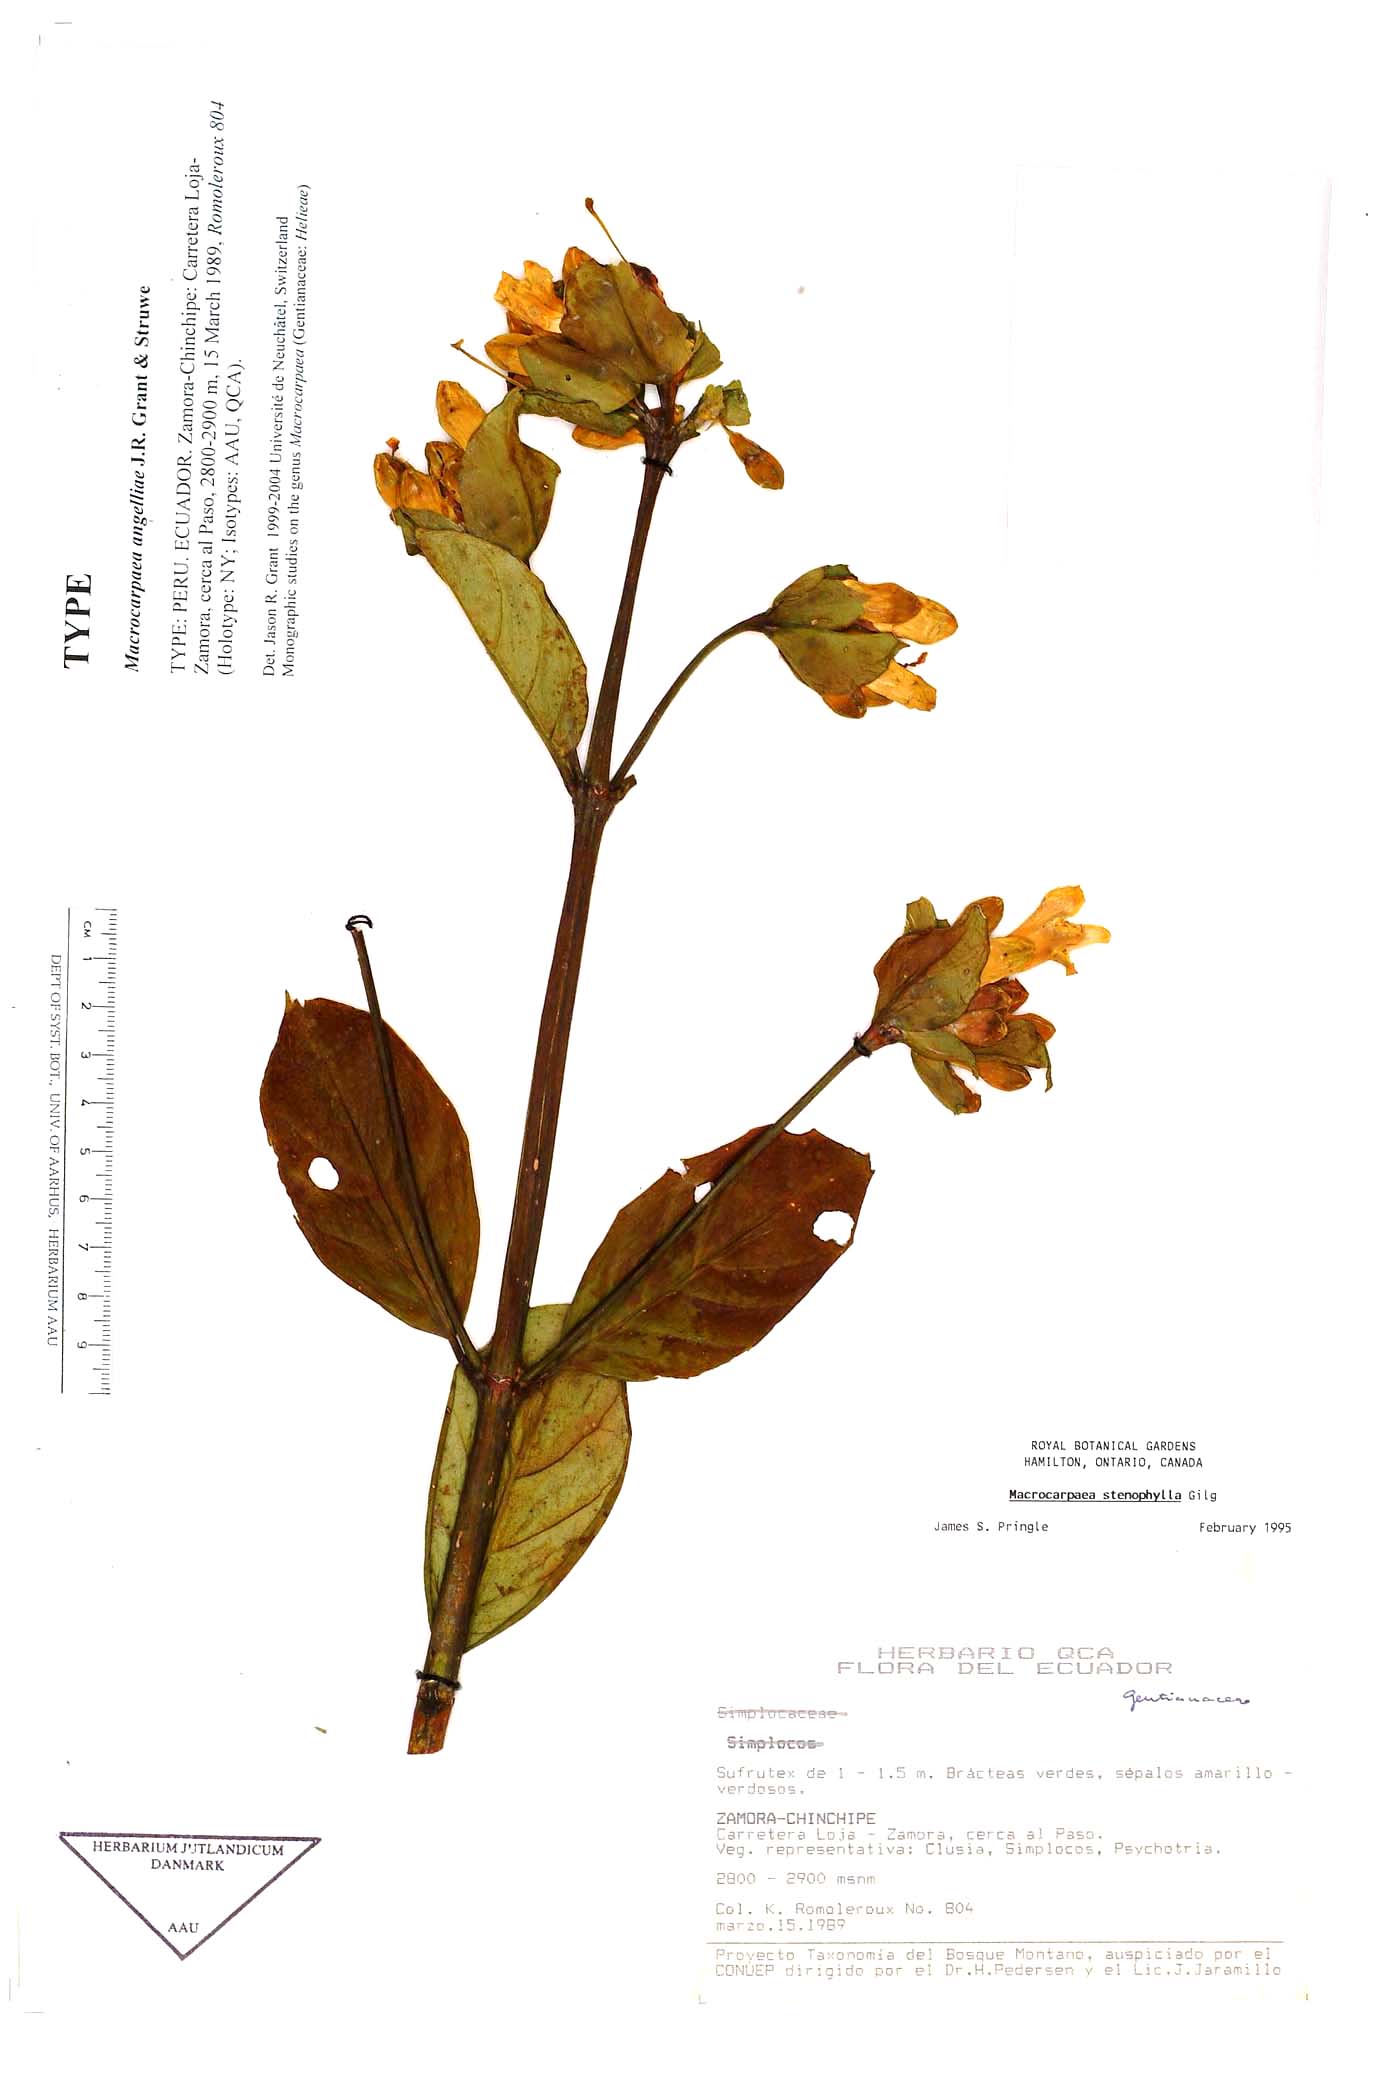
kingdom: Plantae
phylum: Tracheophyta
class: Magnoliopsida
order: Gentianales
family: Gentianaceae
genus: Macrocarpaea
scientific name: Macrocarpaea angelliae
